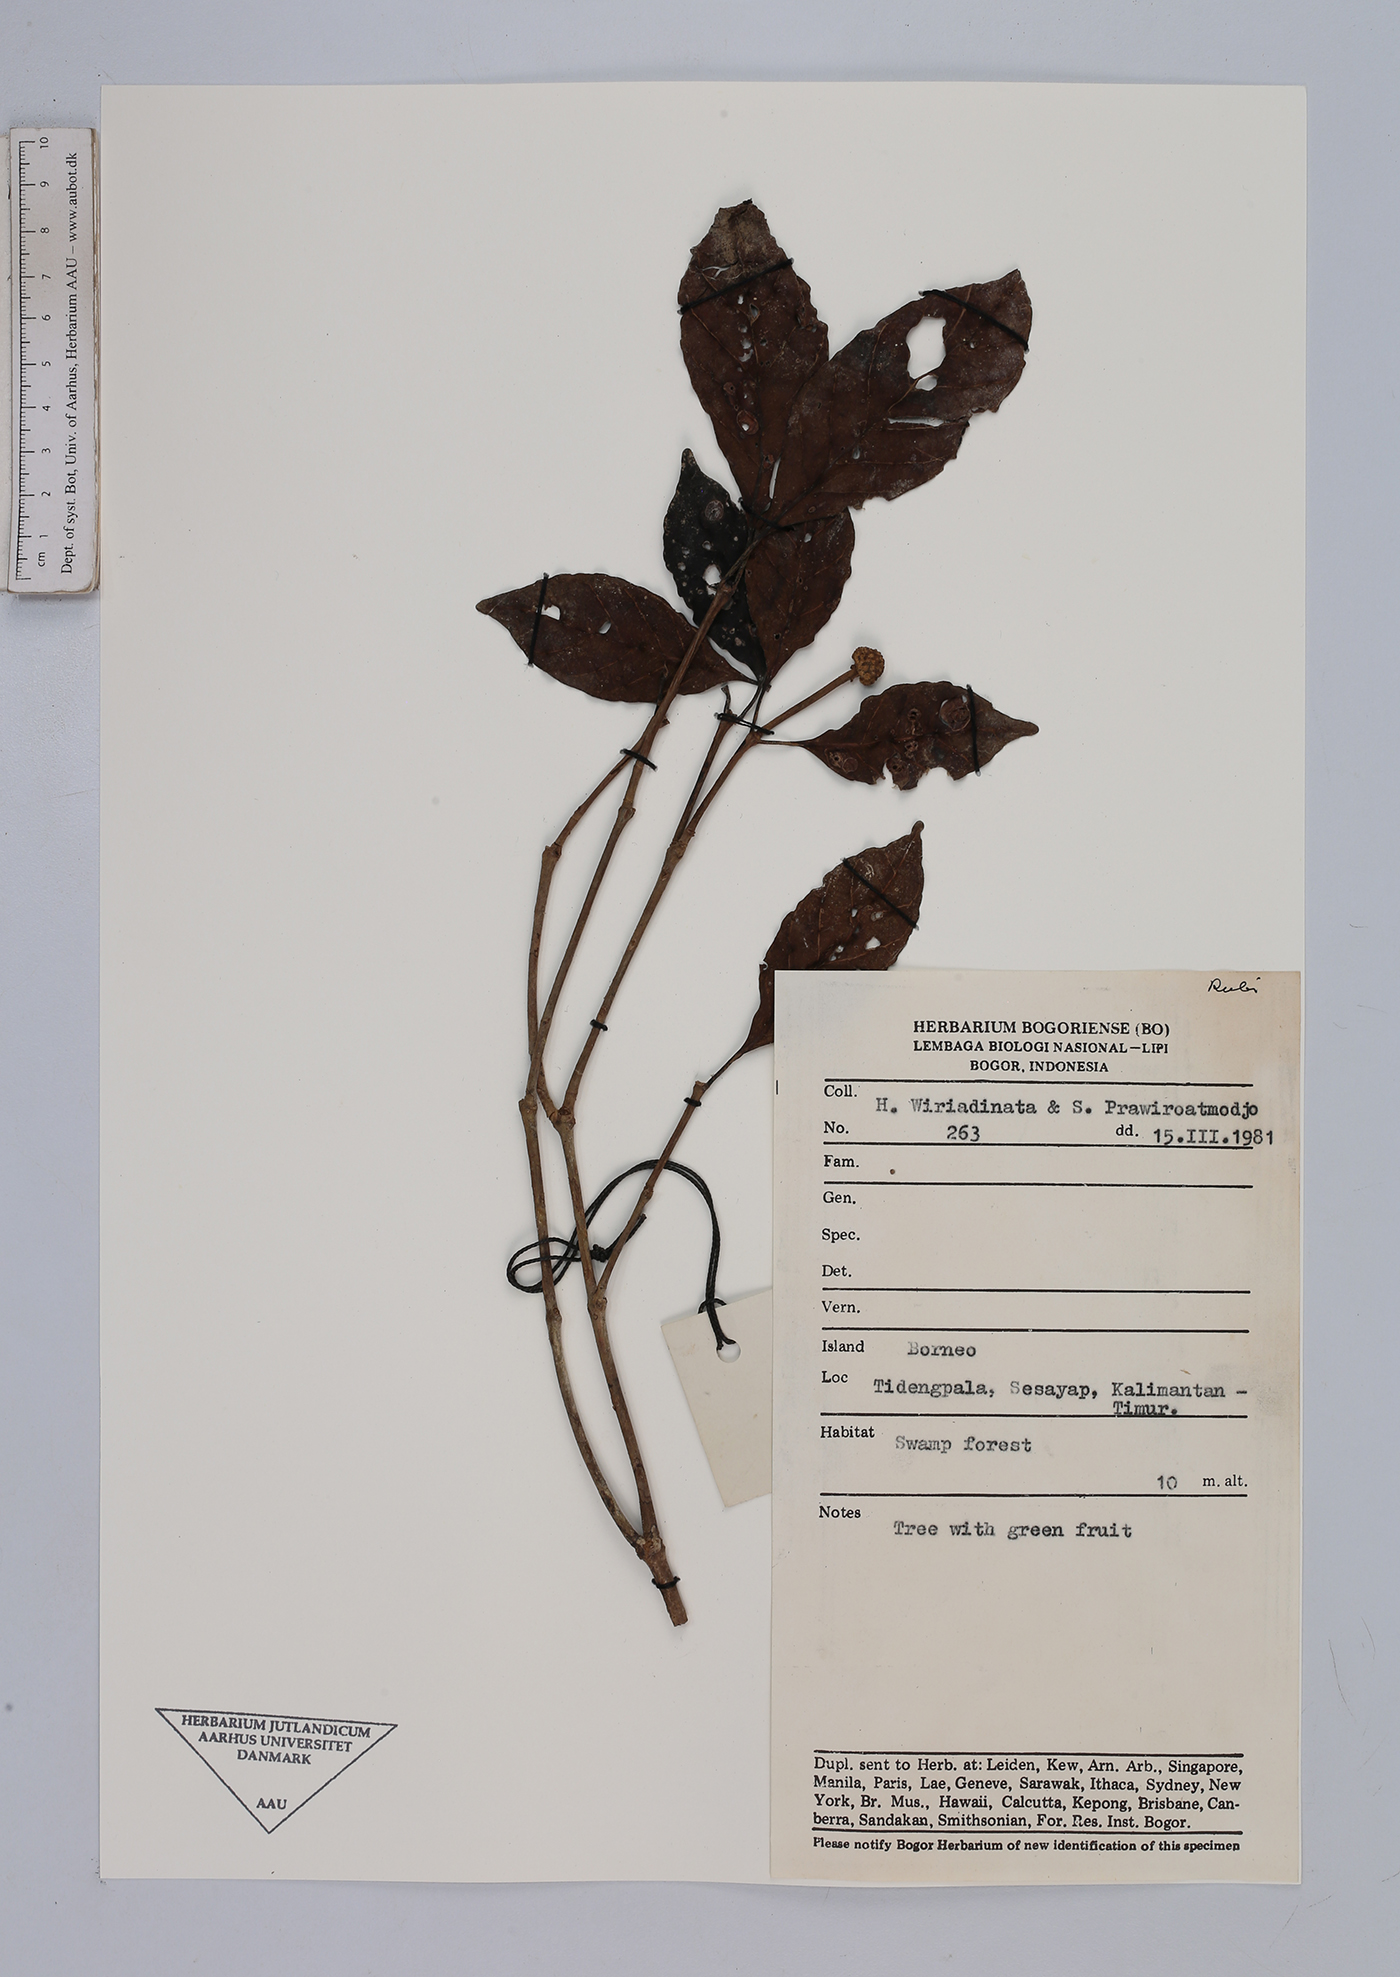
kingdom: Plantae
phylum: Tracheophyta
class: Magnoliopsida
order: Gentianales
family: Rubiaceae
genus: Urophyllum
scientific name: Urophyllum
